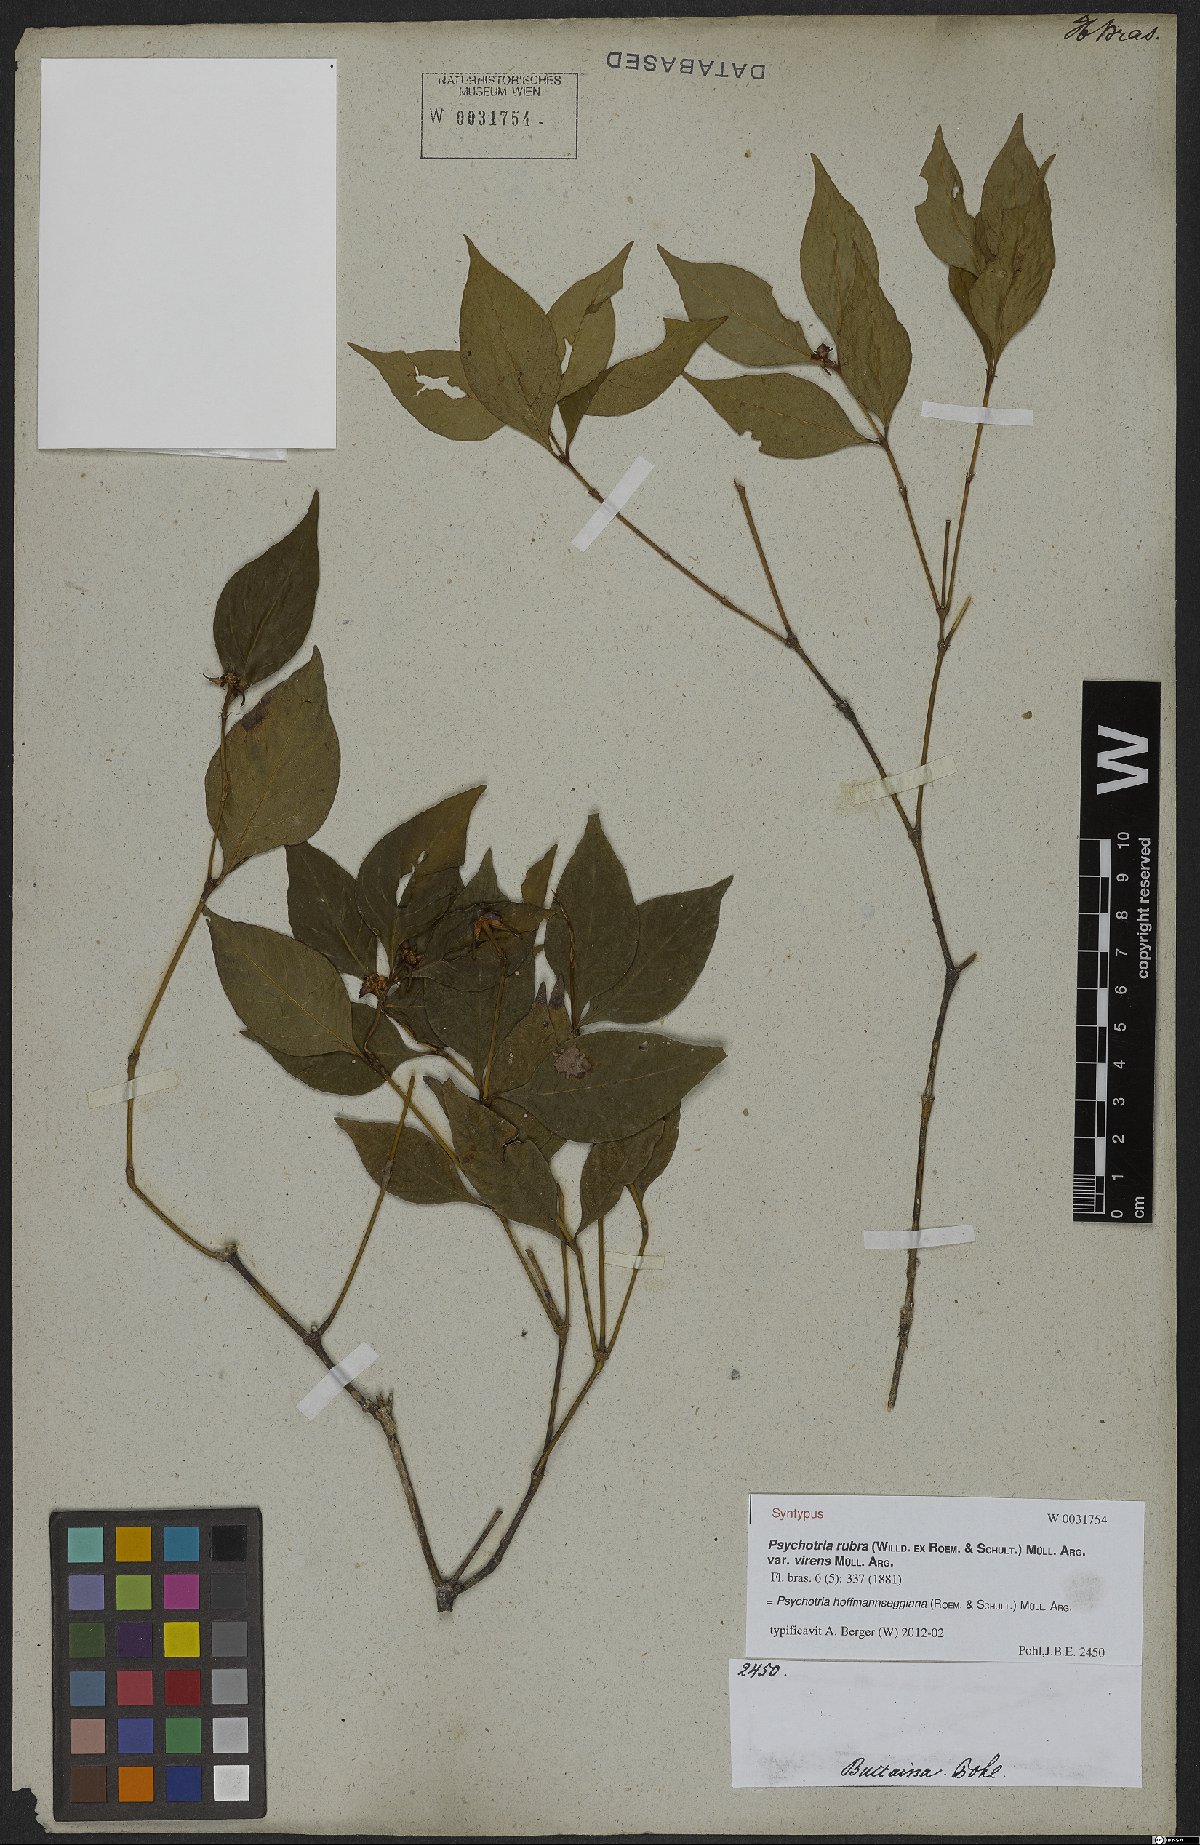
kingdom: Plantae
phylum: Tracheophyta
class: Magnoliopsida
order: Gentianales
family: Rubiaceae
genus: Palicourea
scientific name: Palicourea hoffmannseggiana
